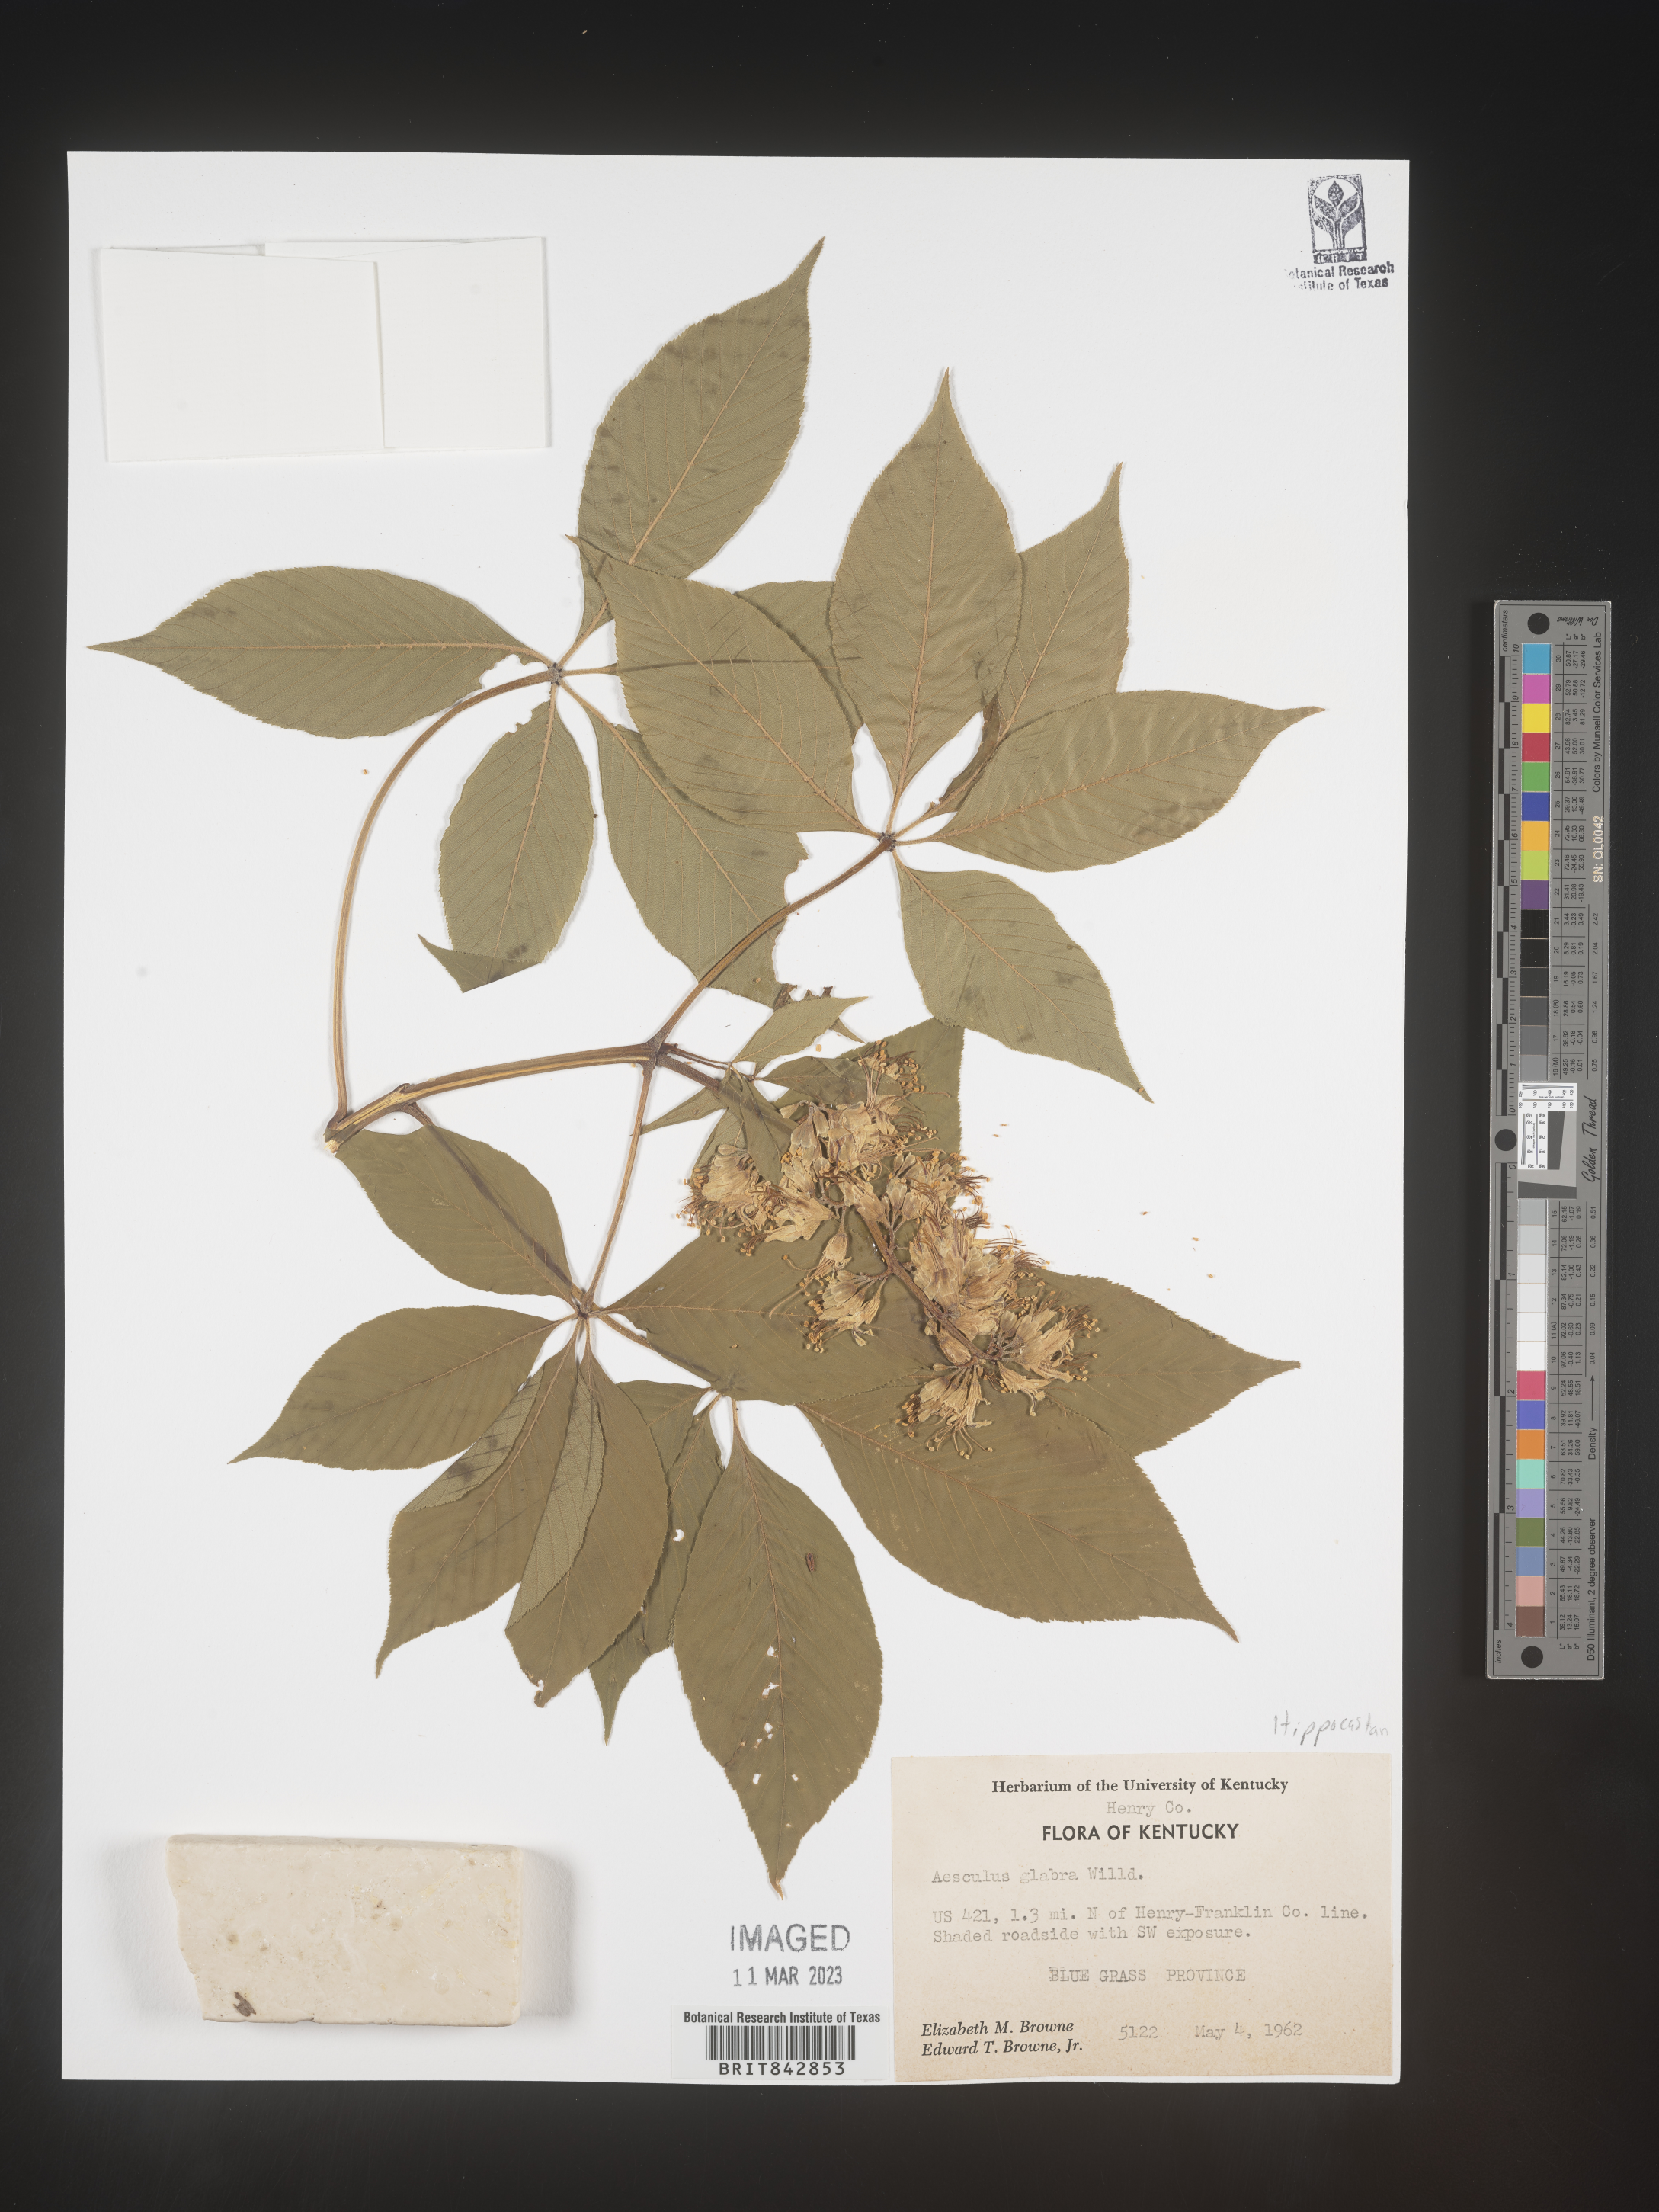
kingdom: Plantae
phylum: Tracheophyta
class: Magnoliopsida
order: Sapindales
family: Sapindaceae
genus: Aesculus
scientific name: Aesculus glabra
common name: Ohio buckeye
